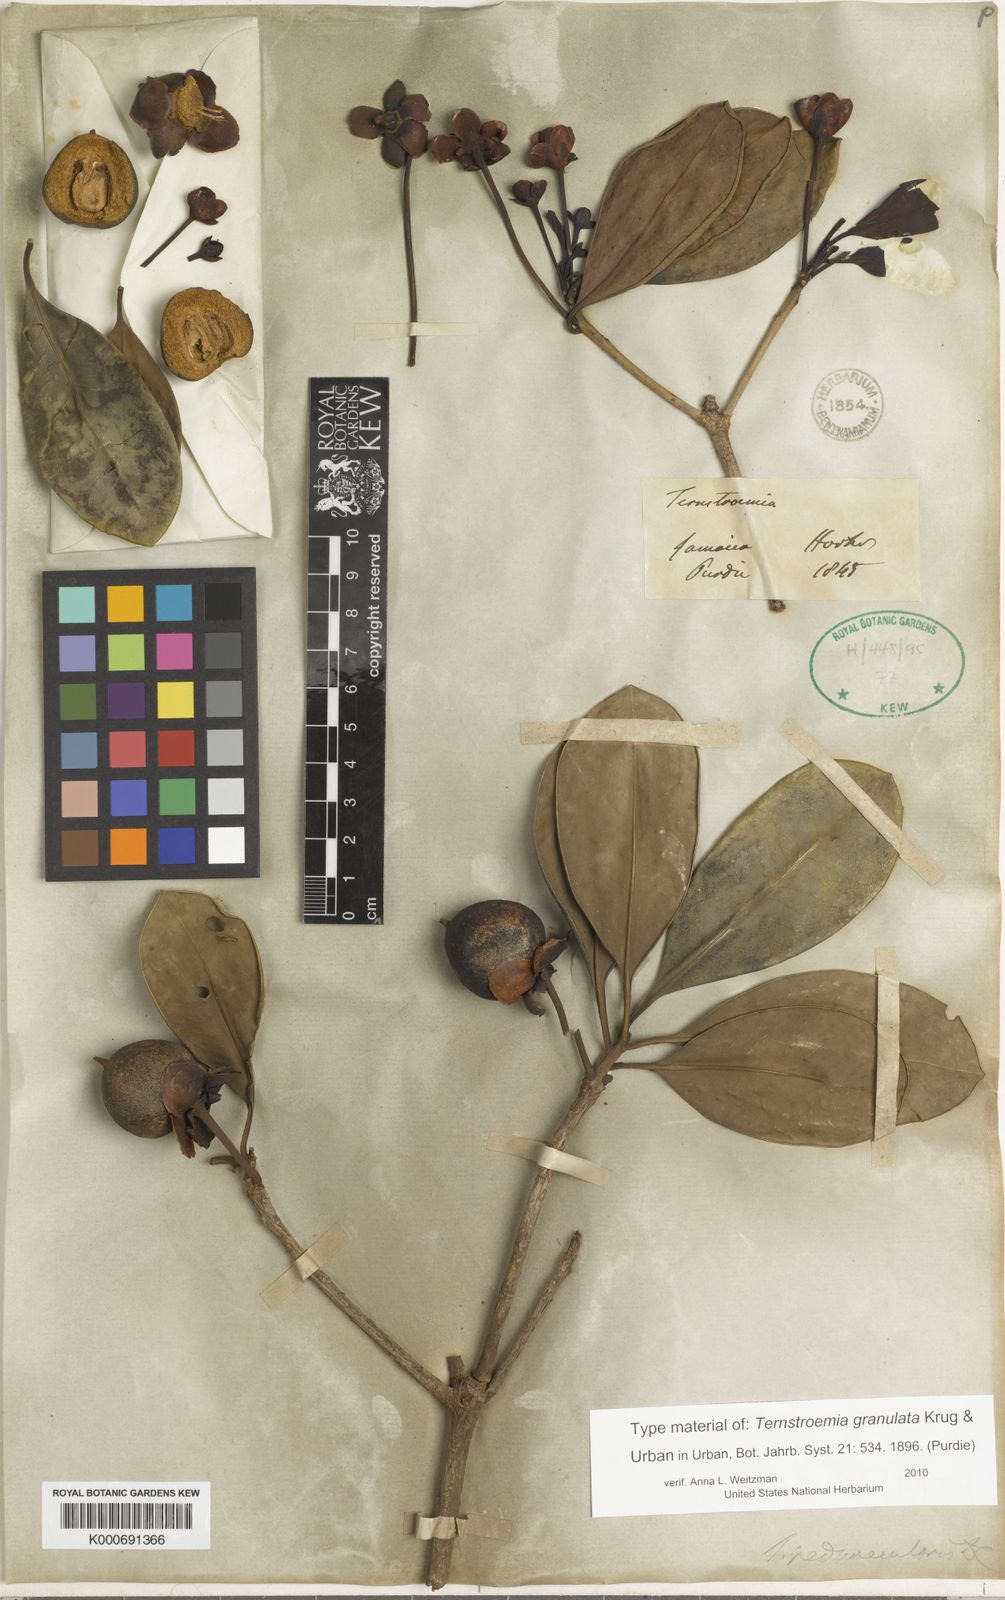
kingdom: Plantae
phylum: Tracheophyta
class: Magnoliopsida
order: Ericales
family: Pentaphylacaceae
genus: Ternstroemia
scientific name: Ternstroemia granulata
